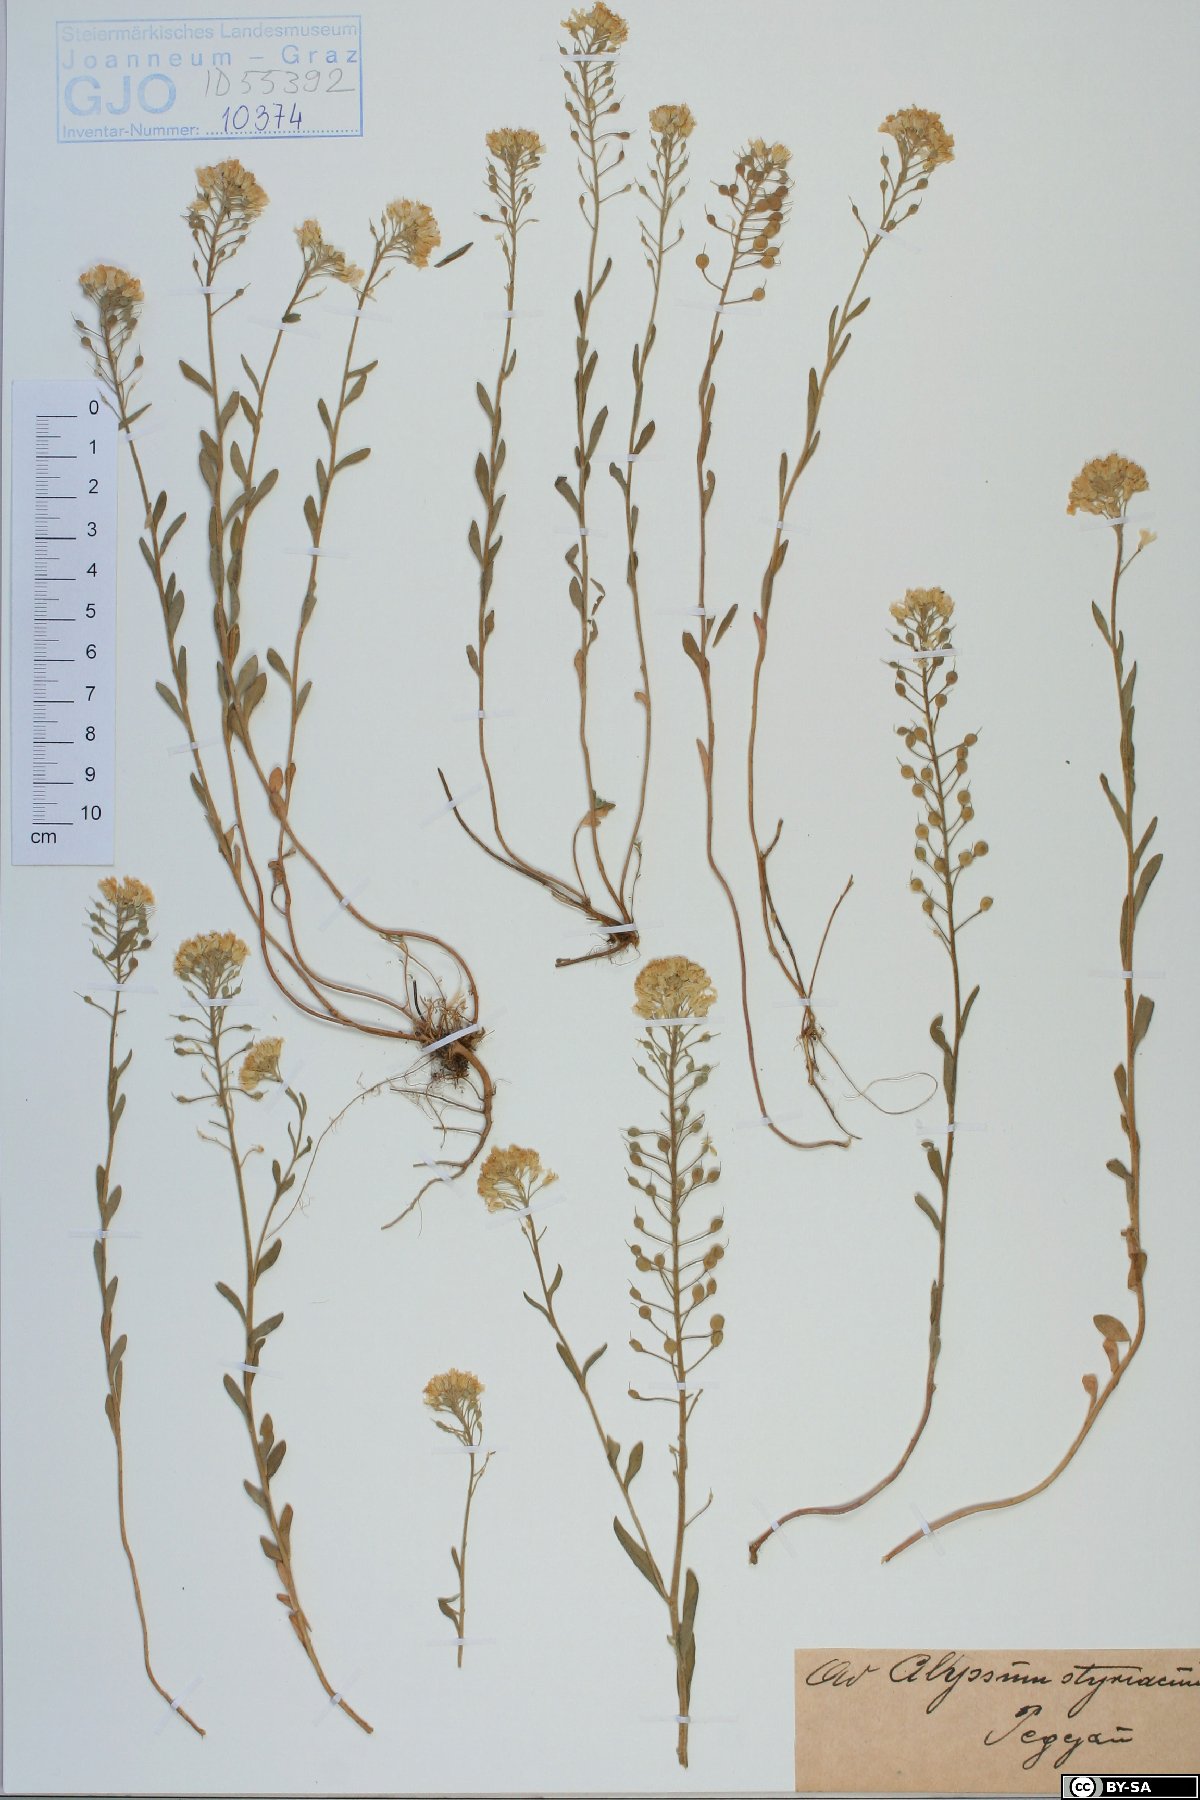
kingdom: Plantae
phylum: Tracheophyta
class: Magnoliopsida
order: Brassicales
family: Brassicaceae
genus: Alyssum
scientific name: Alyssum repens
